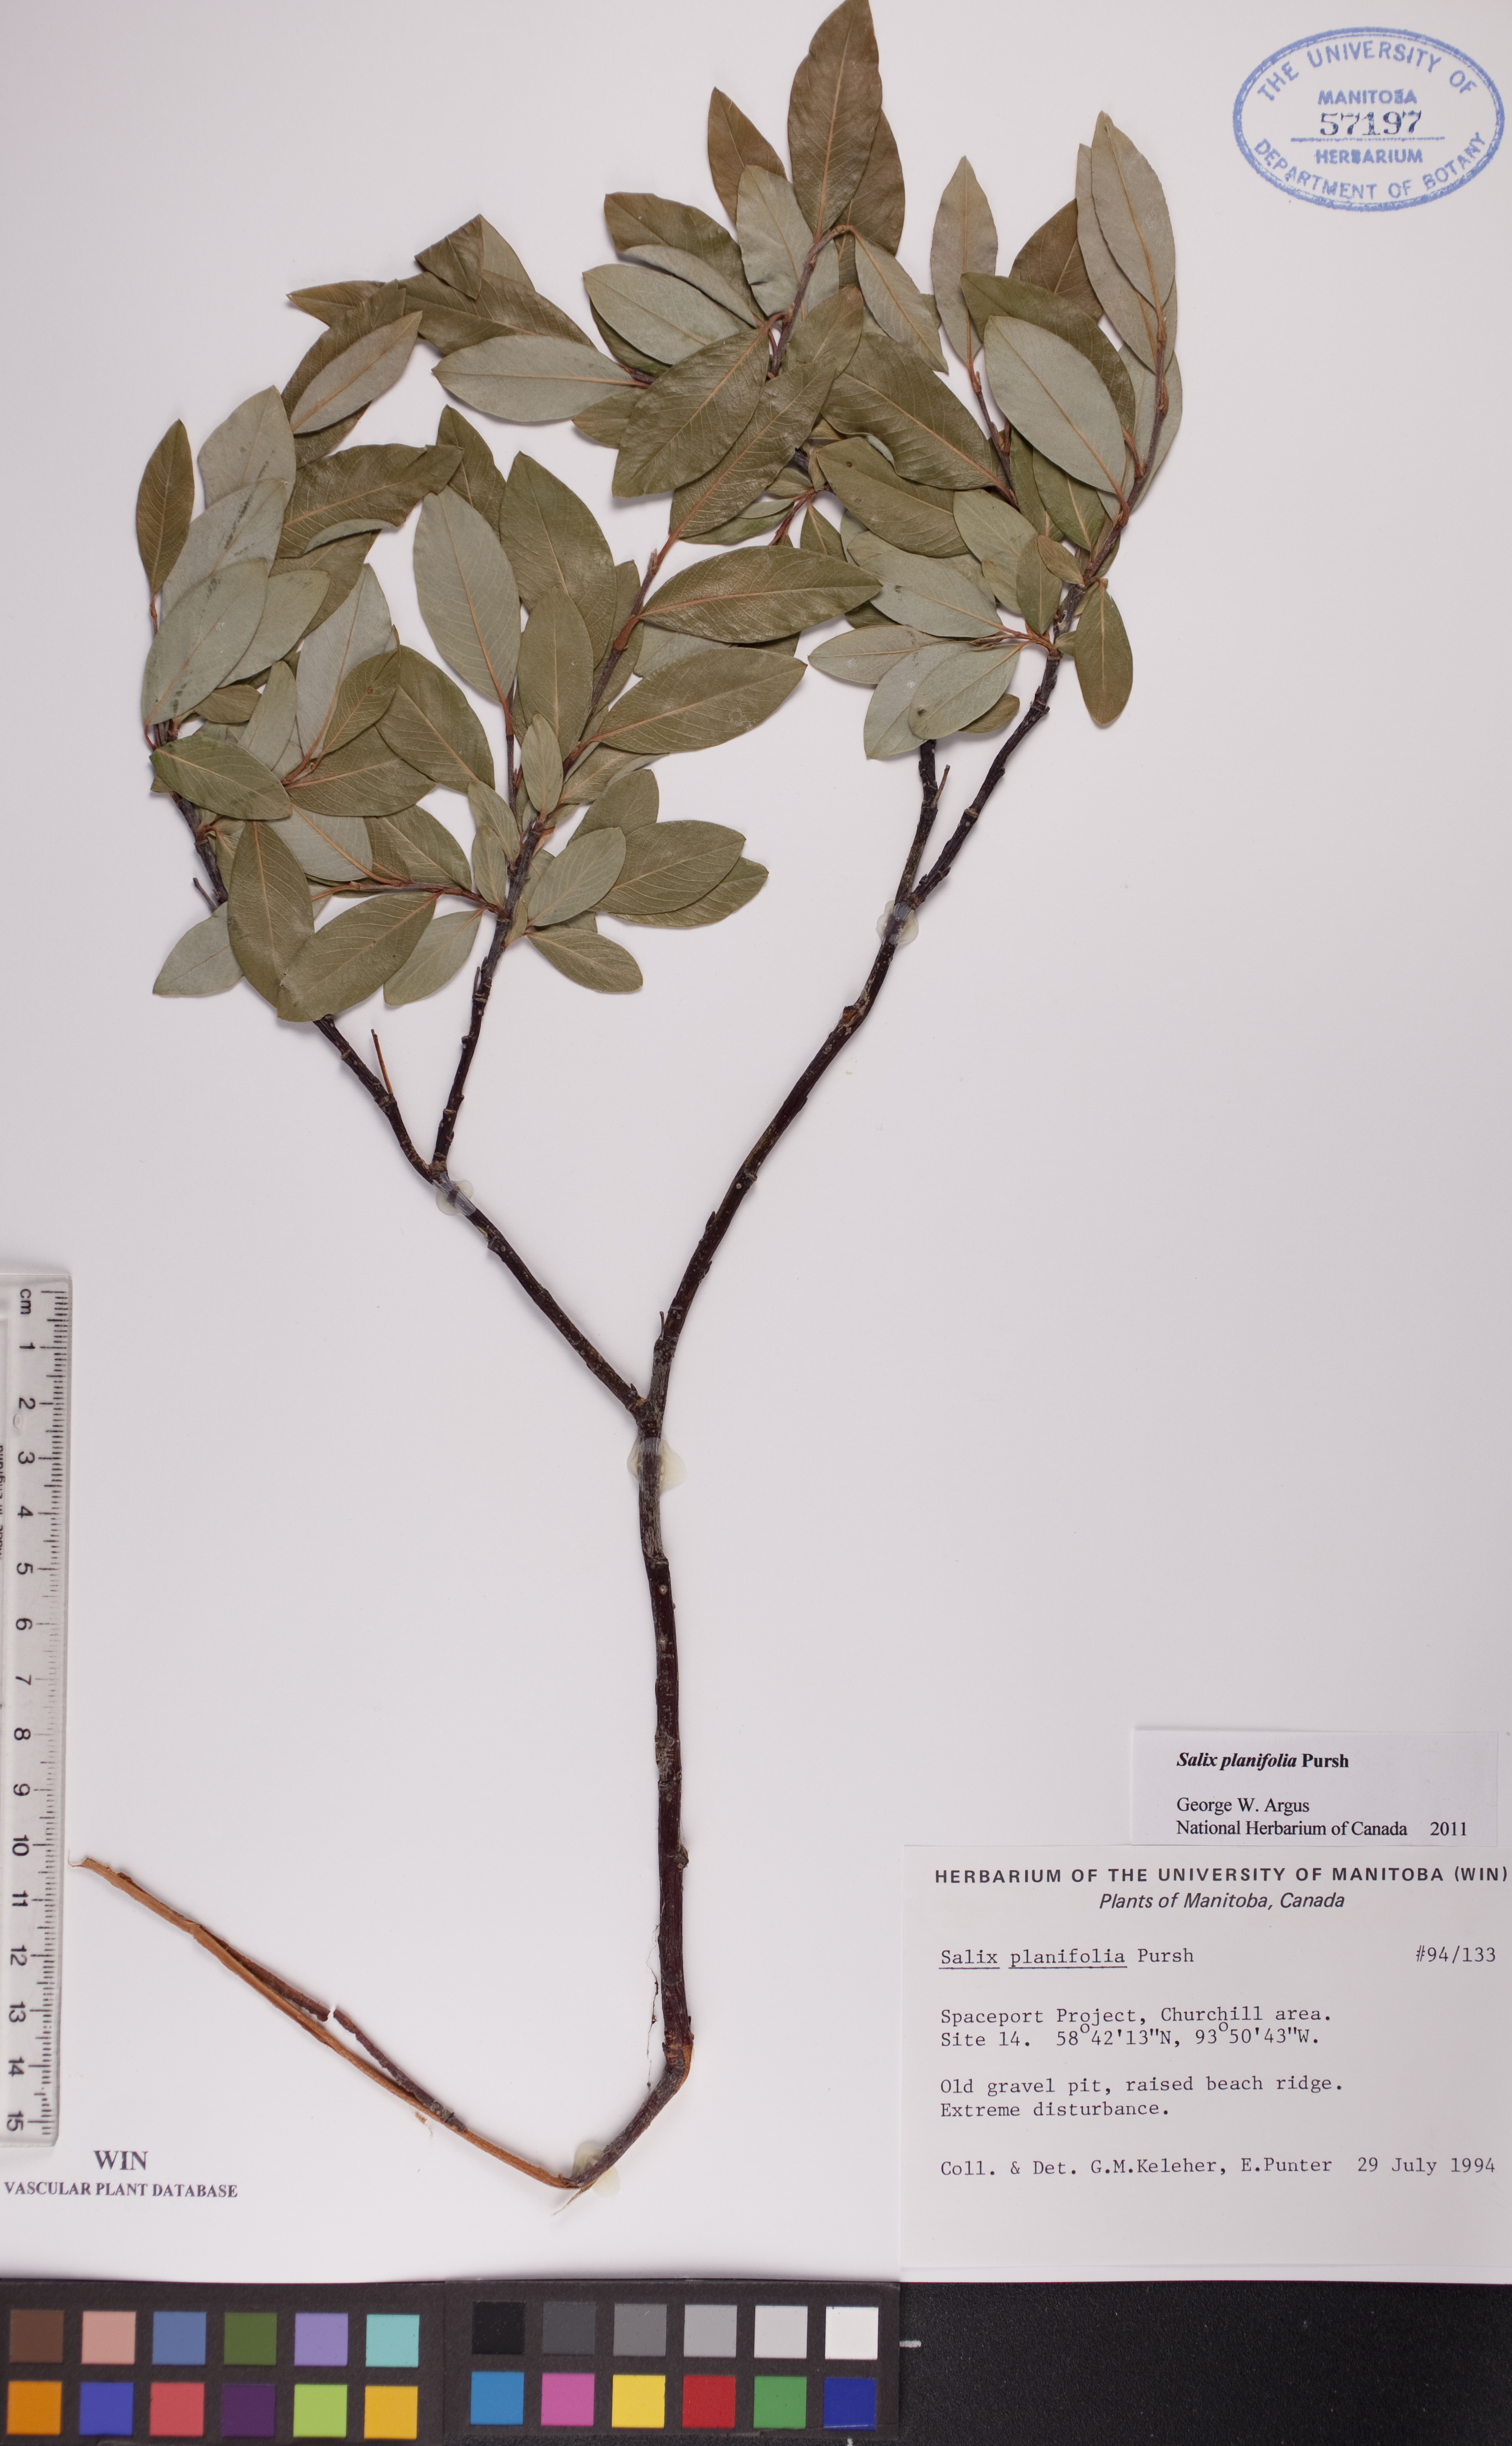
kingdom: Plantae
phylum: Tracheophyta
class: Magnoliopsida
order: Malpighiales
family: Salicaceae
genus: Salix
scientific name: Salix planifolia
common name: Mountain willow
